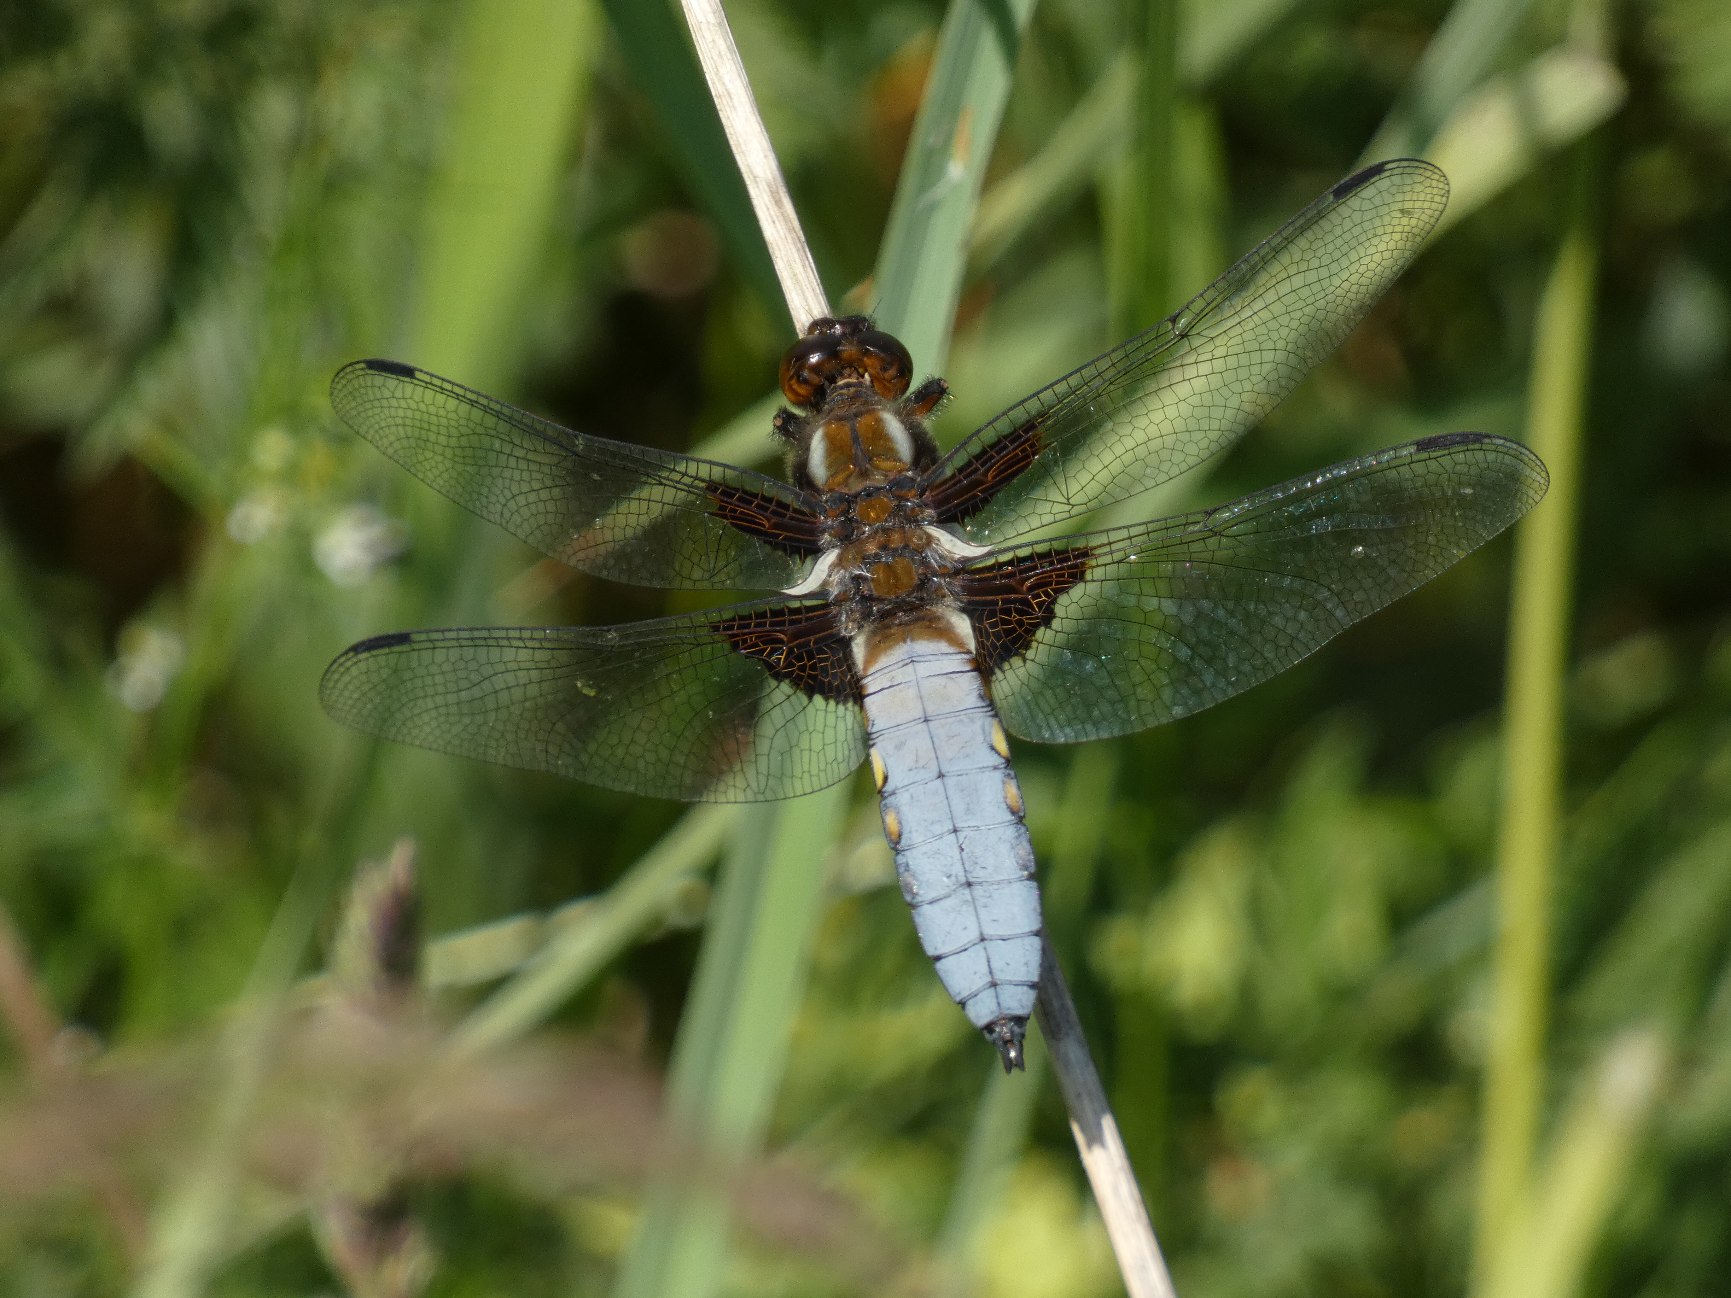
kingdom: Animalia
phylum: Arthropoda
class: Insecta
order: Odonata
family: Libellulidae
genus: Libellula
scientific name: Libellula depressa
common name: Blå libel
